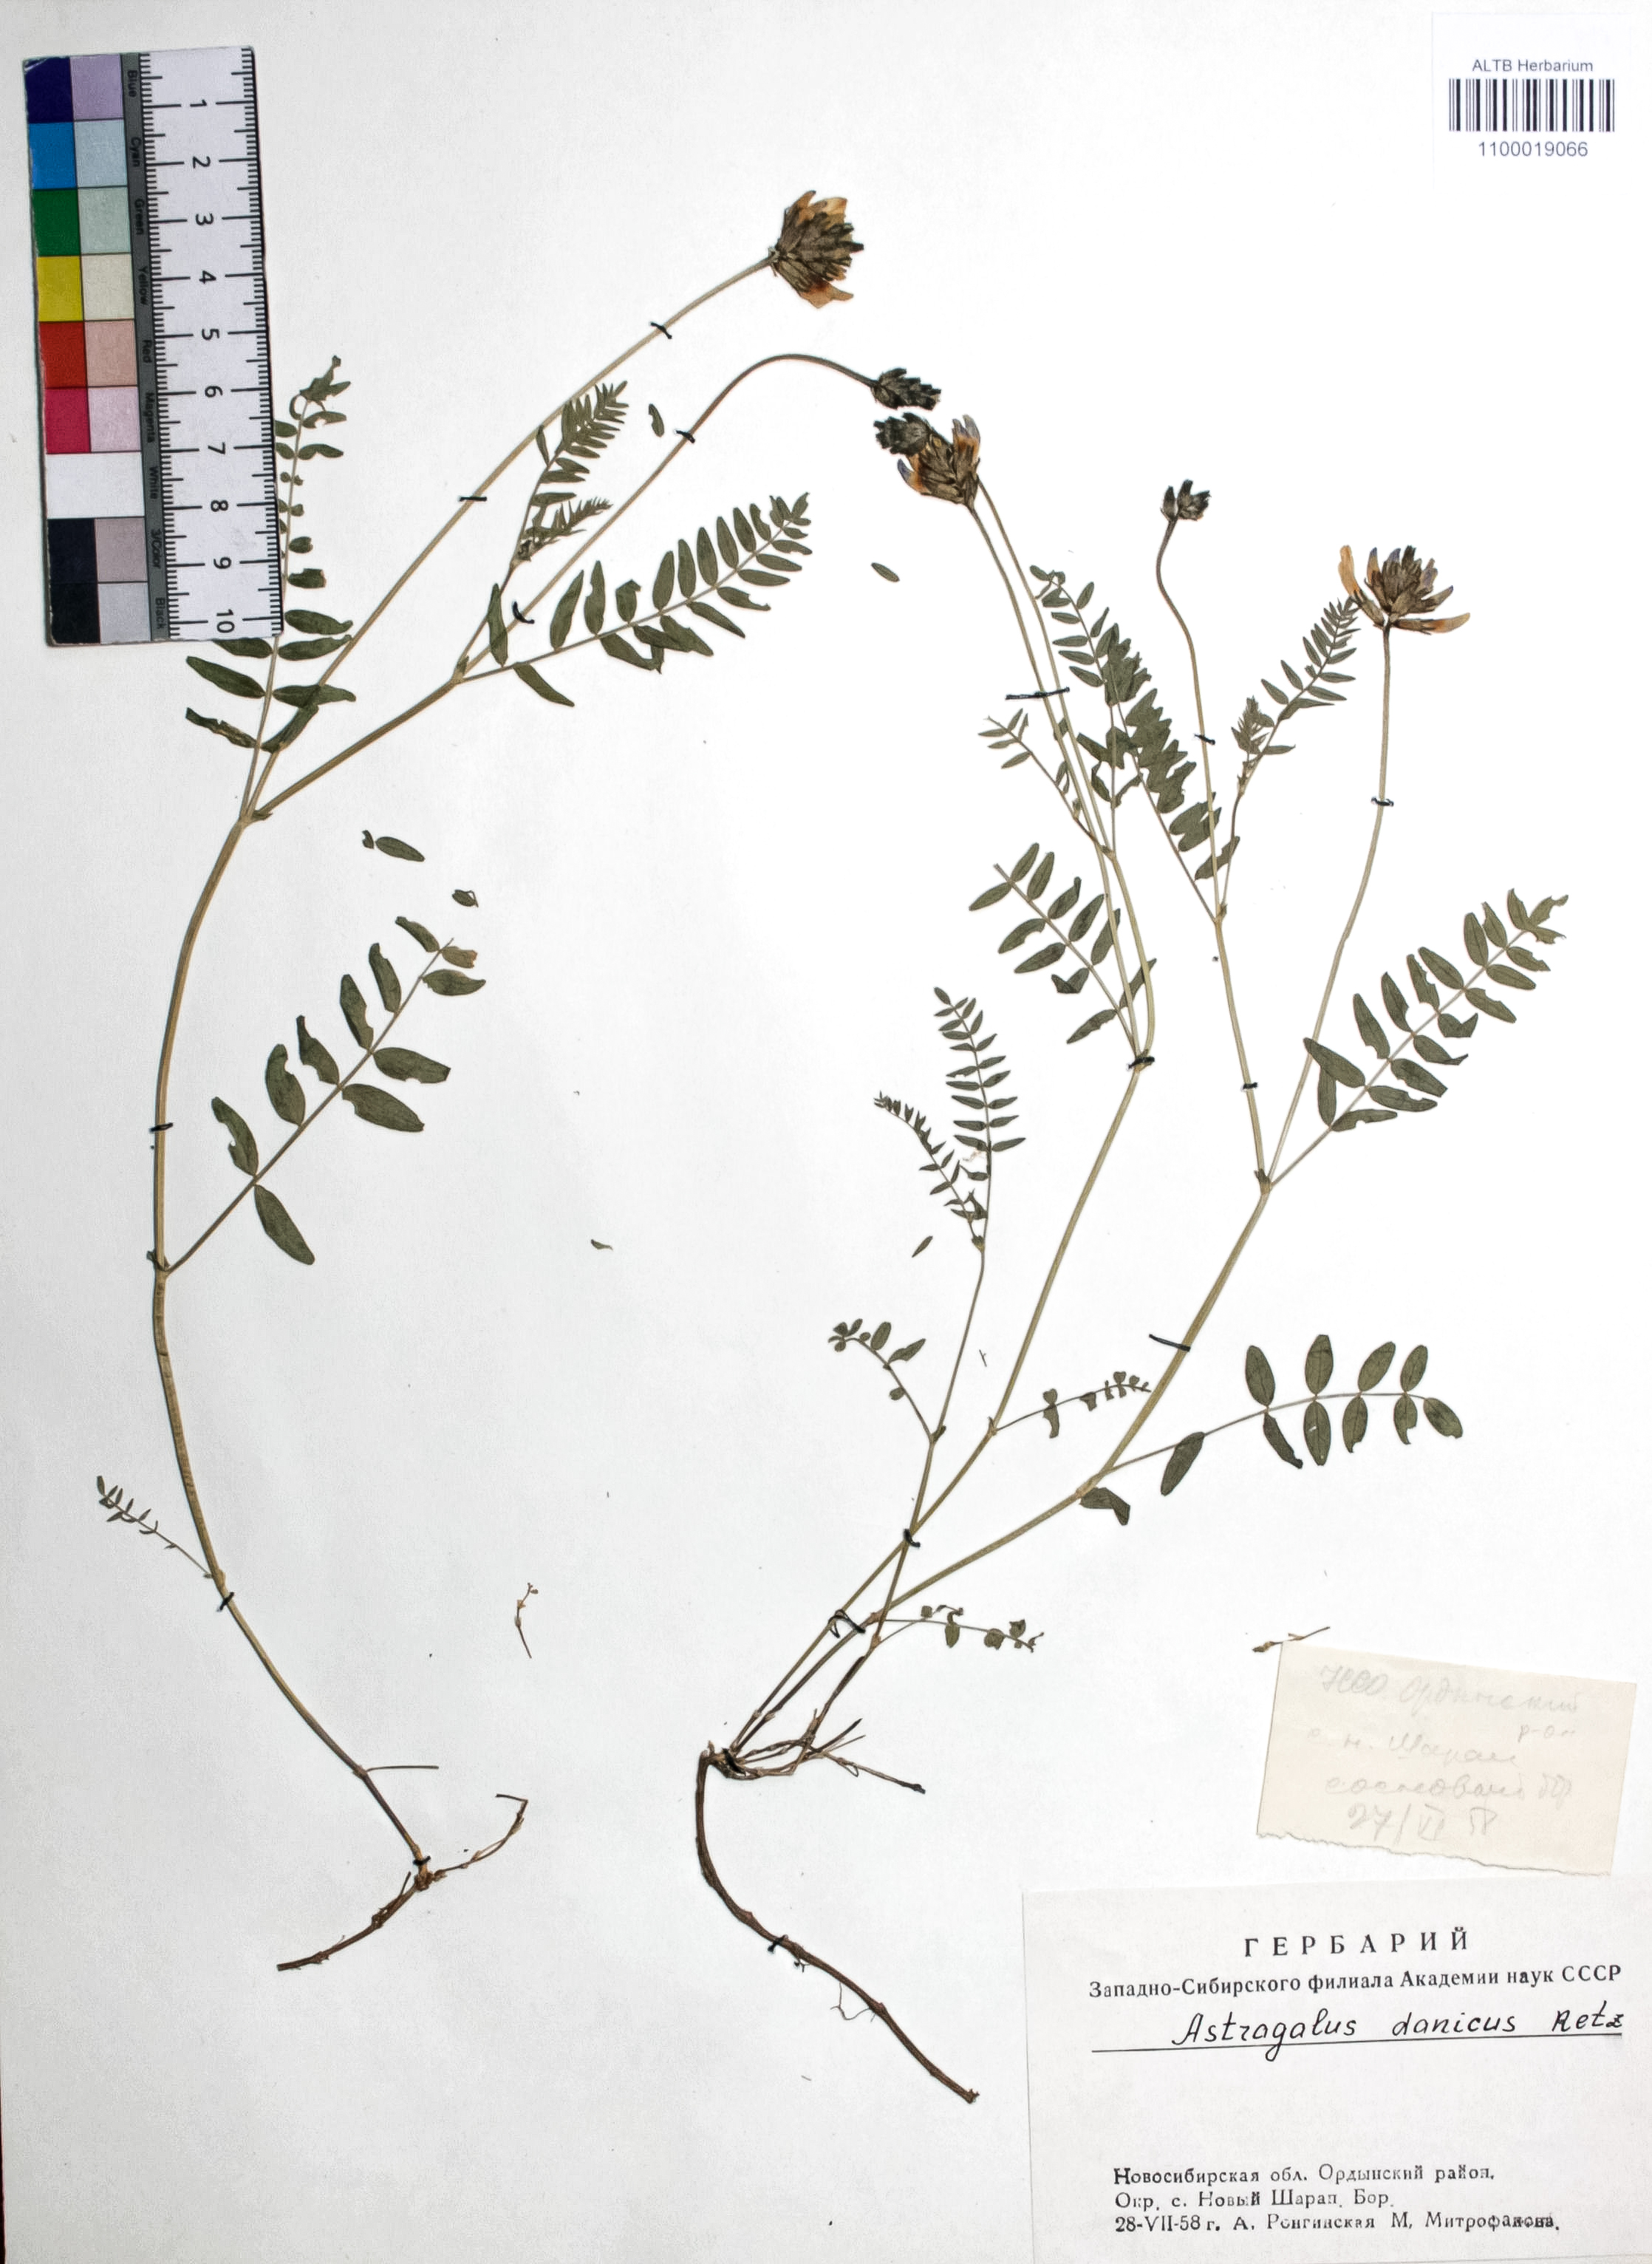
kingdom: Plantae
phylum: Tracheophyta
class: Magnoliopsida
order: Fabales
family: Fabaceae
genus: Astragalus
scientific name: Astragalus danicus
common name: Purple milk-vetch
